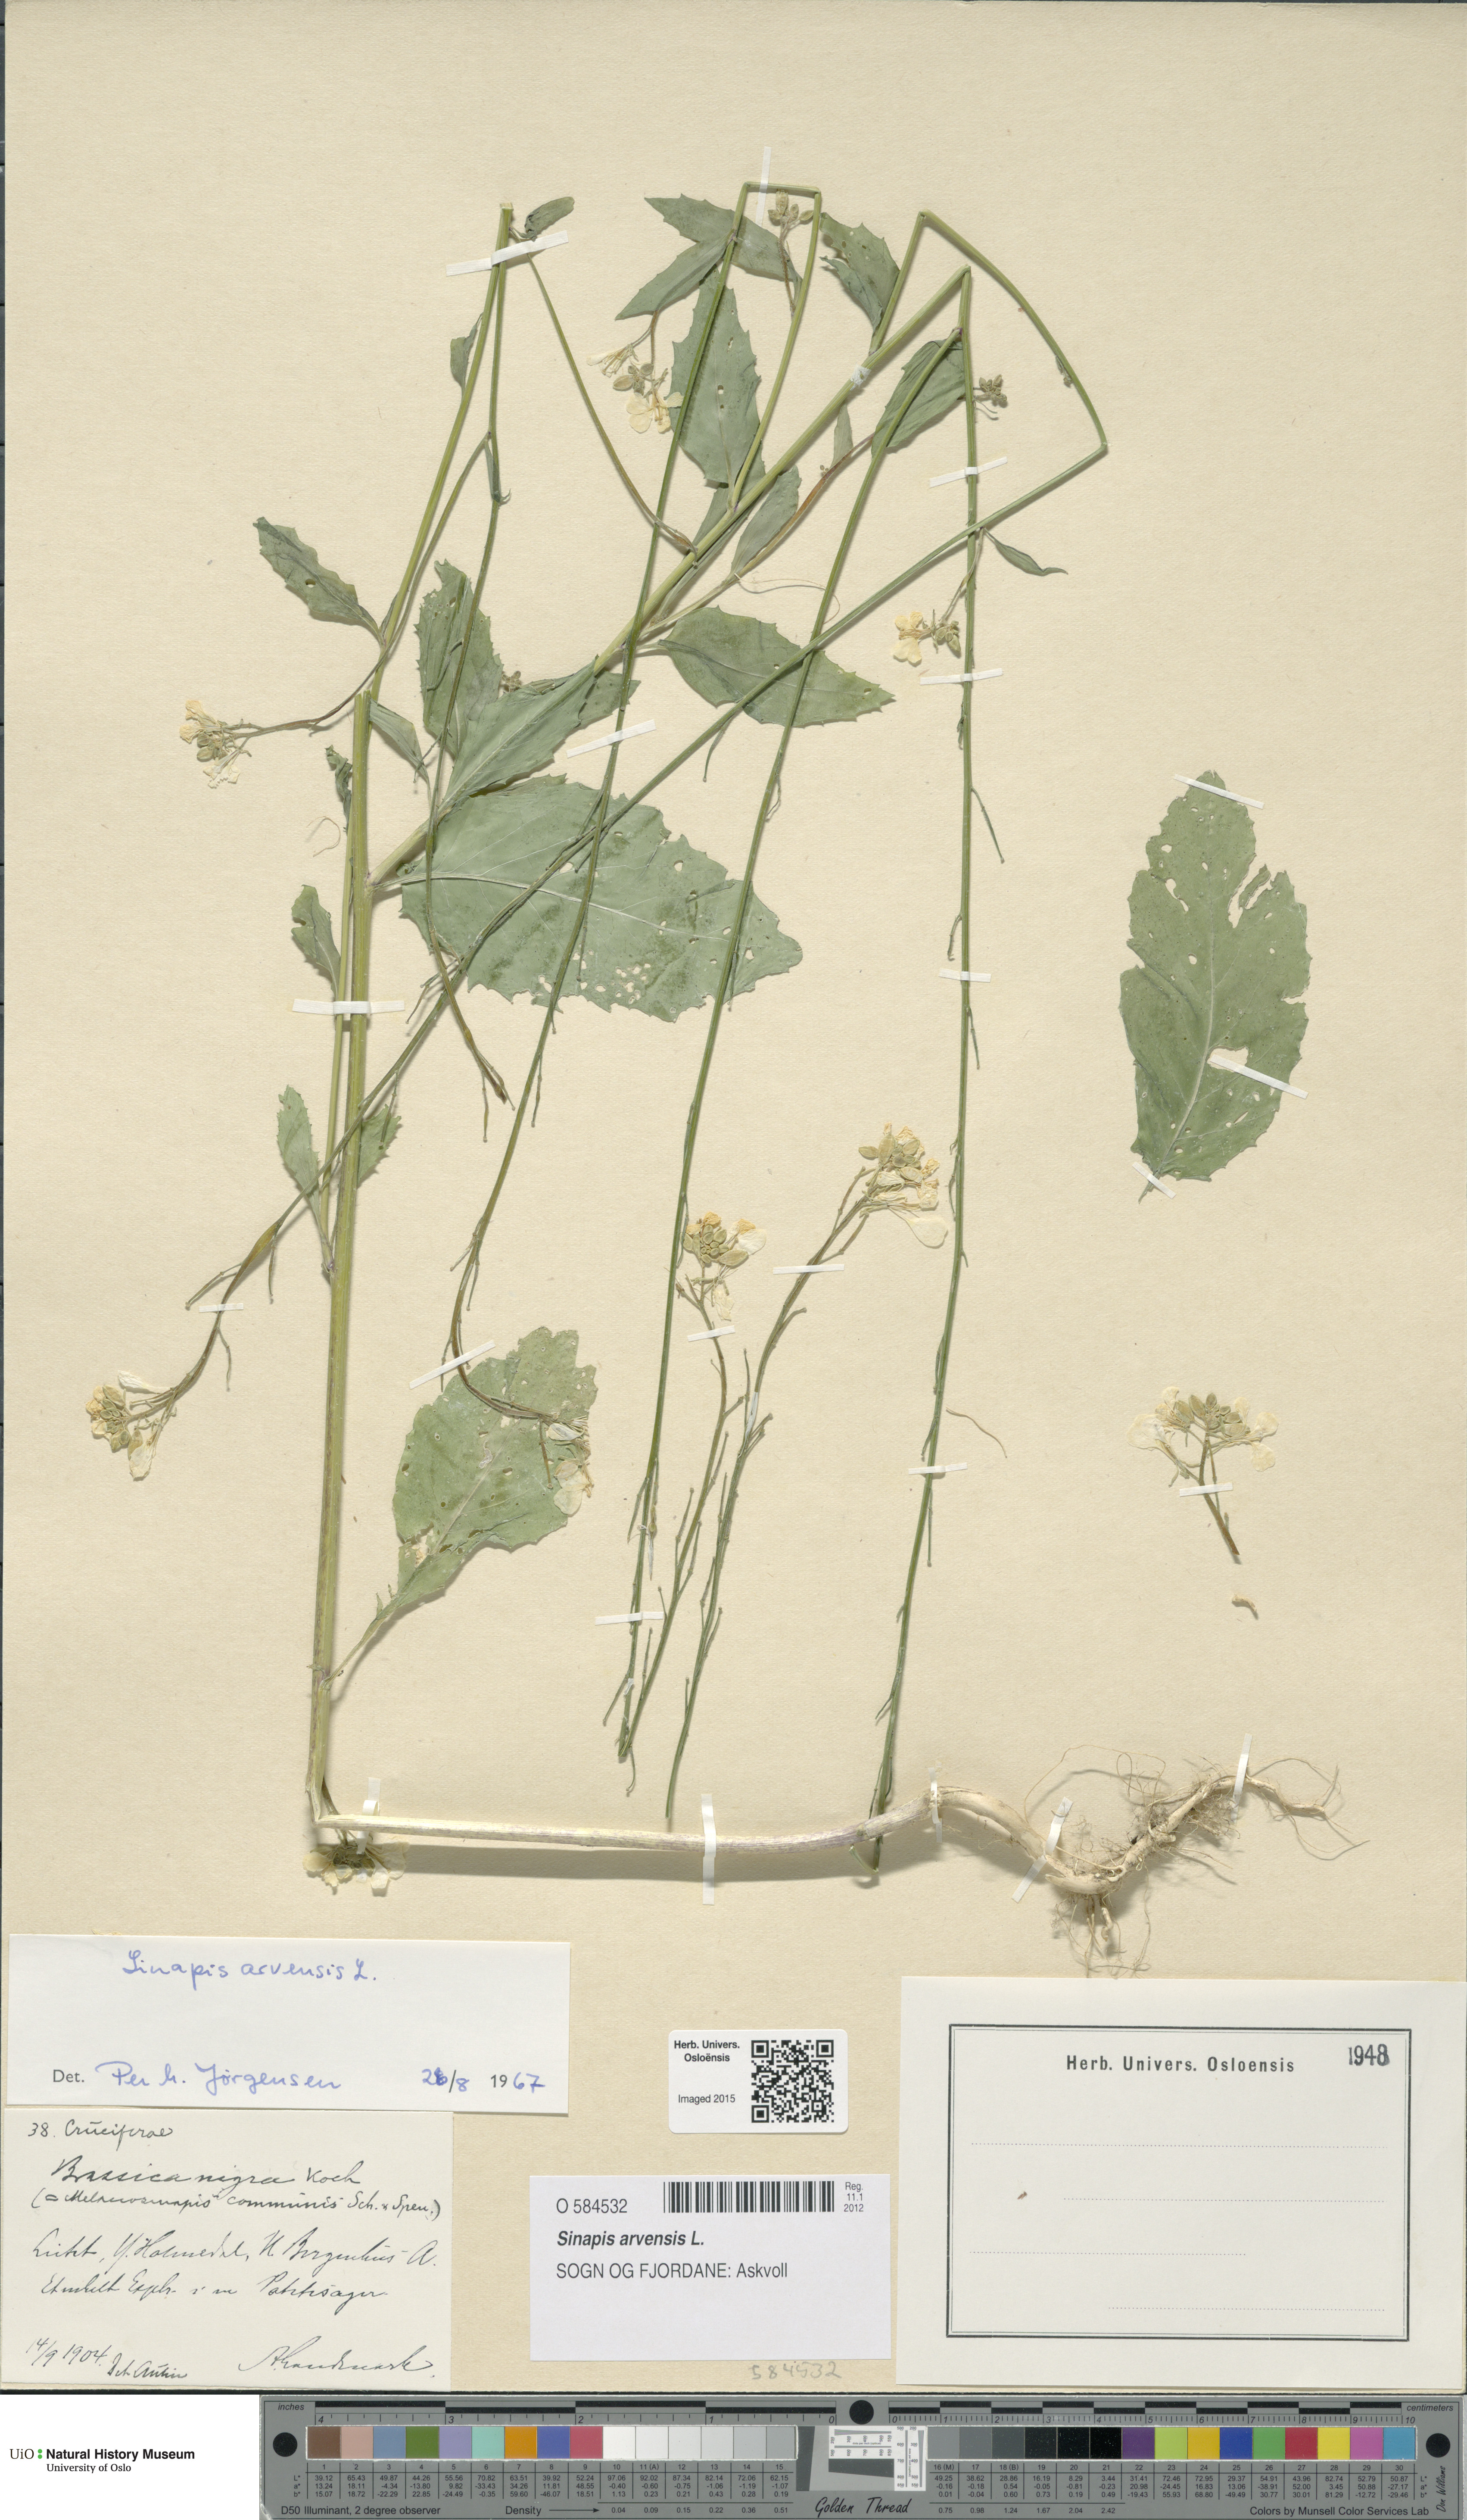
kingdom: Plantae
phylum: Tracheophyta
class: Magnoliopsida
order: Brassicales
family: Brassicaceae
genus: Sinapis
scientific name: Sinapis arvensis
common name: Charlock
